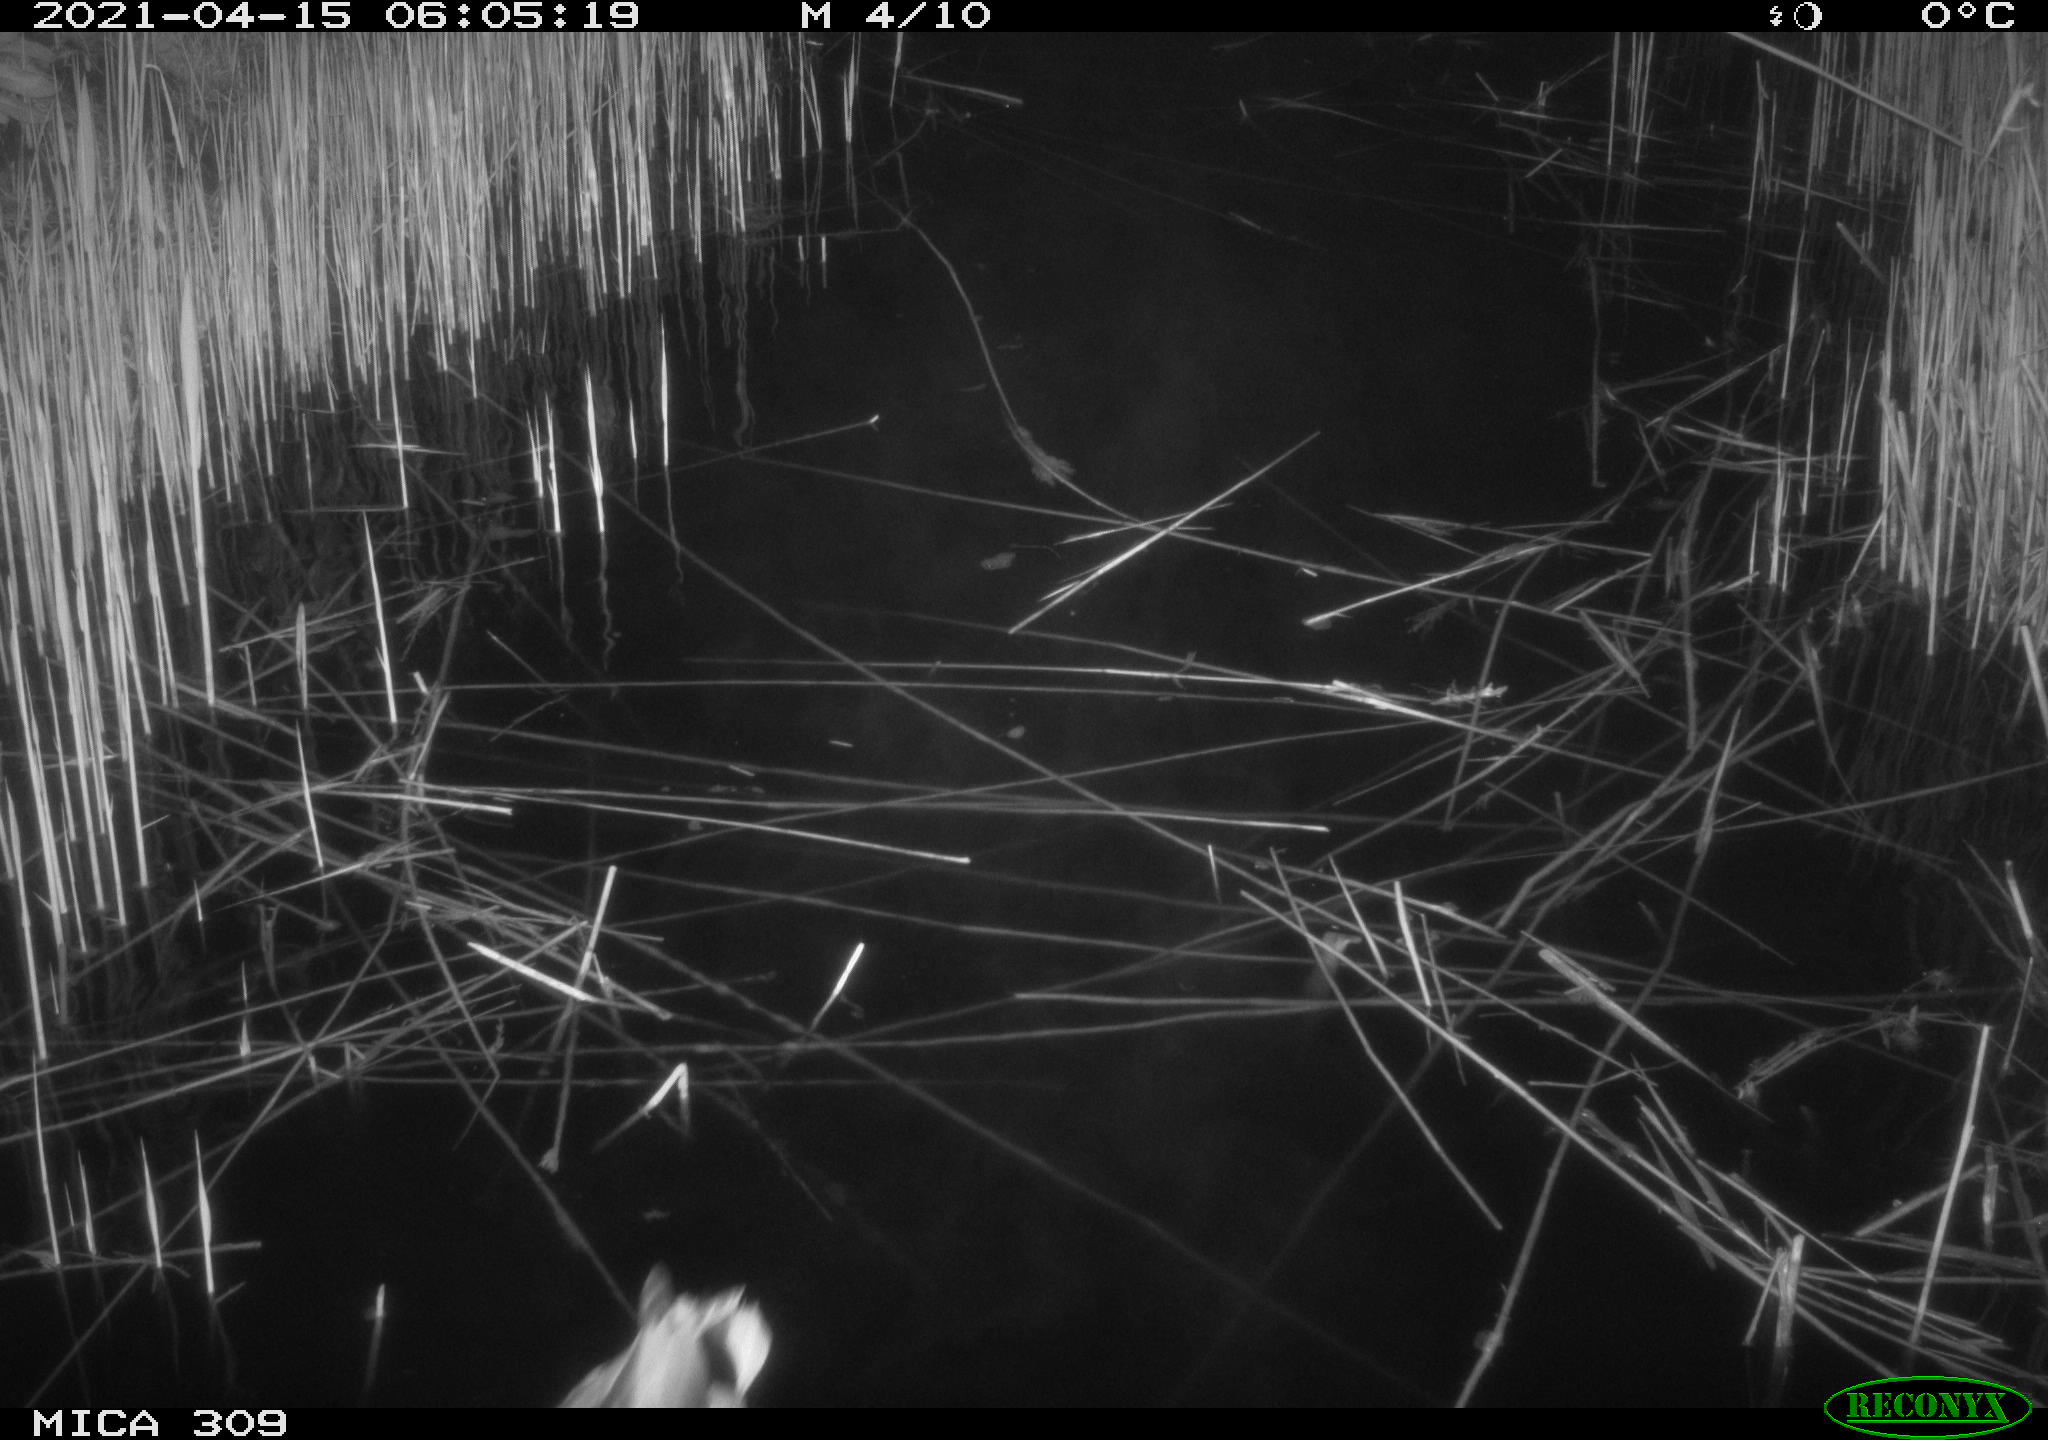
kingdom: Animalia
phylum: Chordata
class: Aves
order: Anseriformes
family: Anatidae
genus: Anas
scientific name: Anas platyrhynchos
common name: Mallard
